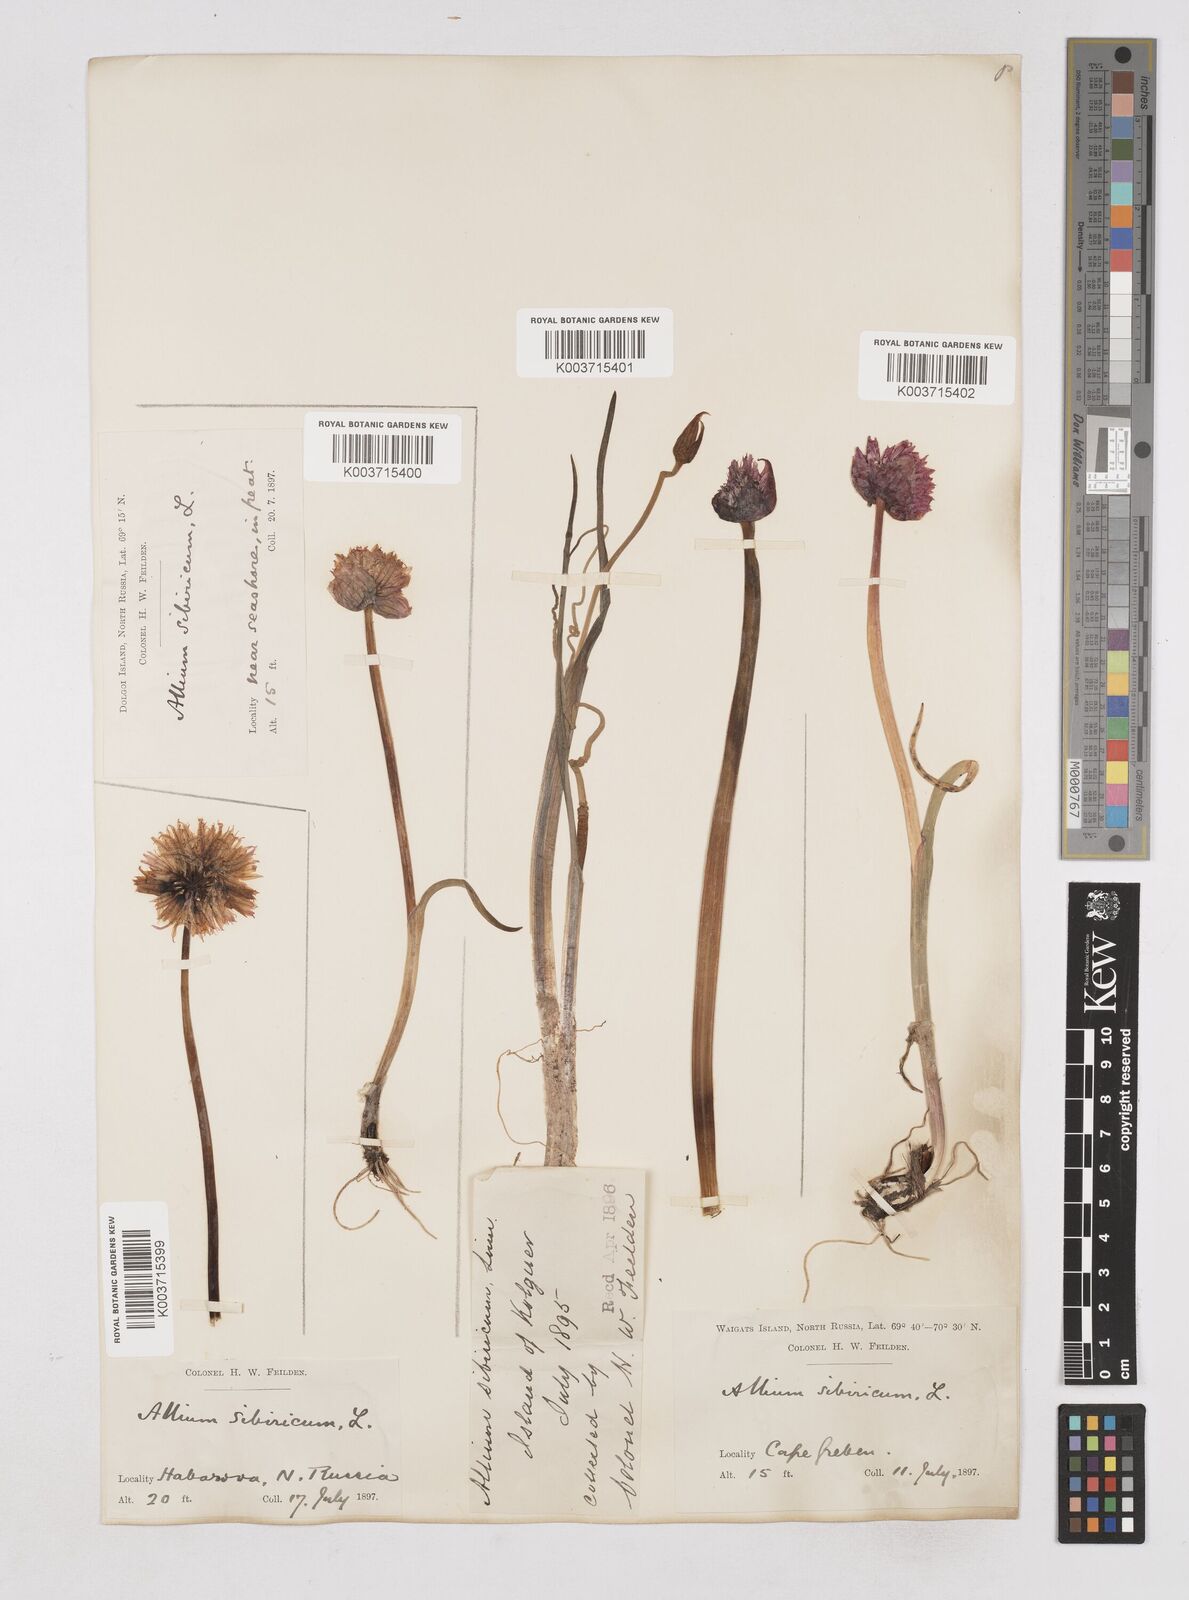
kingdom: Plantae
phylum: Tracheophyta
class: Liliopsida
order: Asparagales
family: Amaryllidaceae
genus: Allium
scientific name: Allium schoenoprasum
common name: Chives
